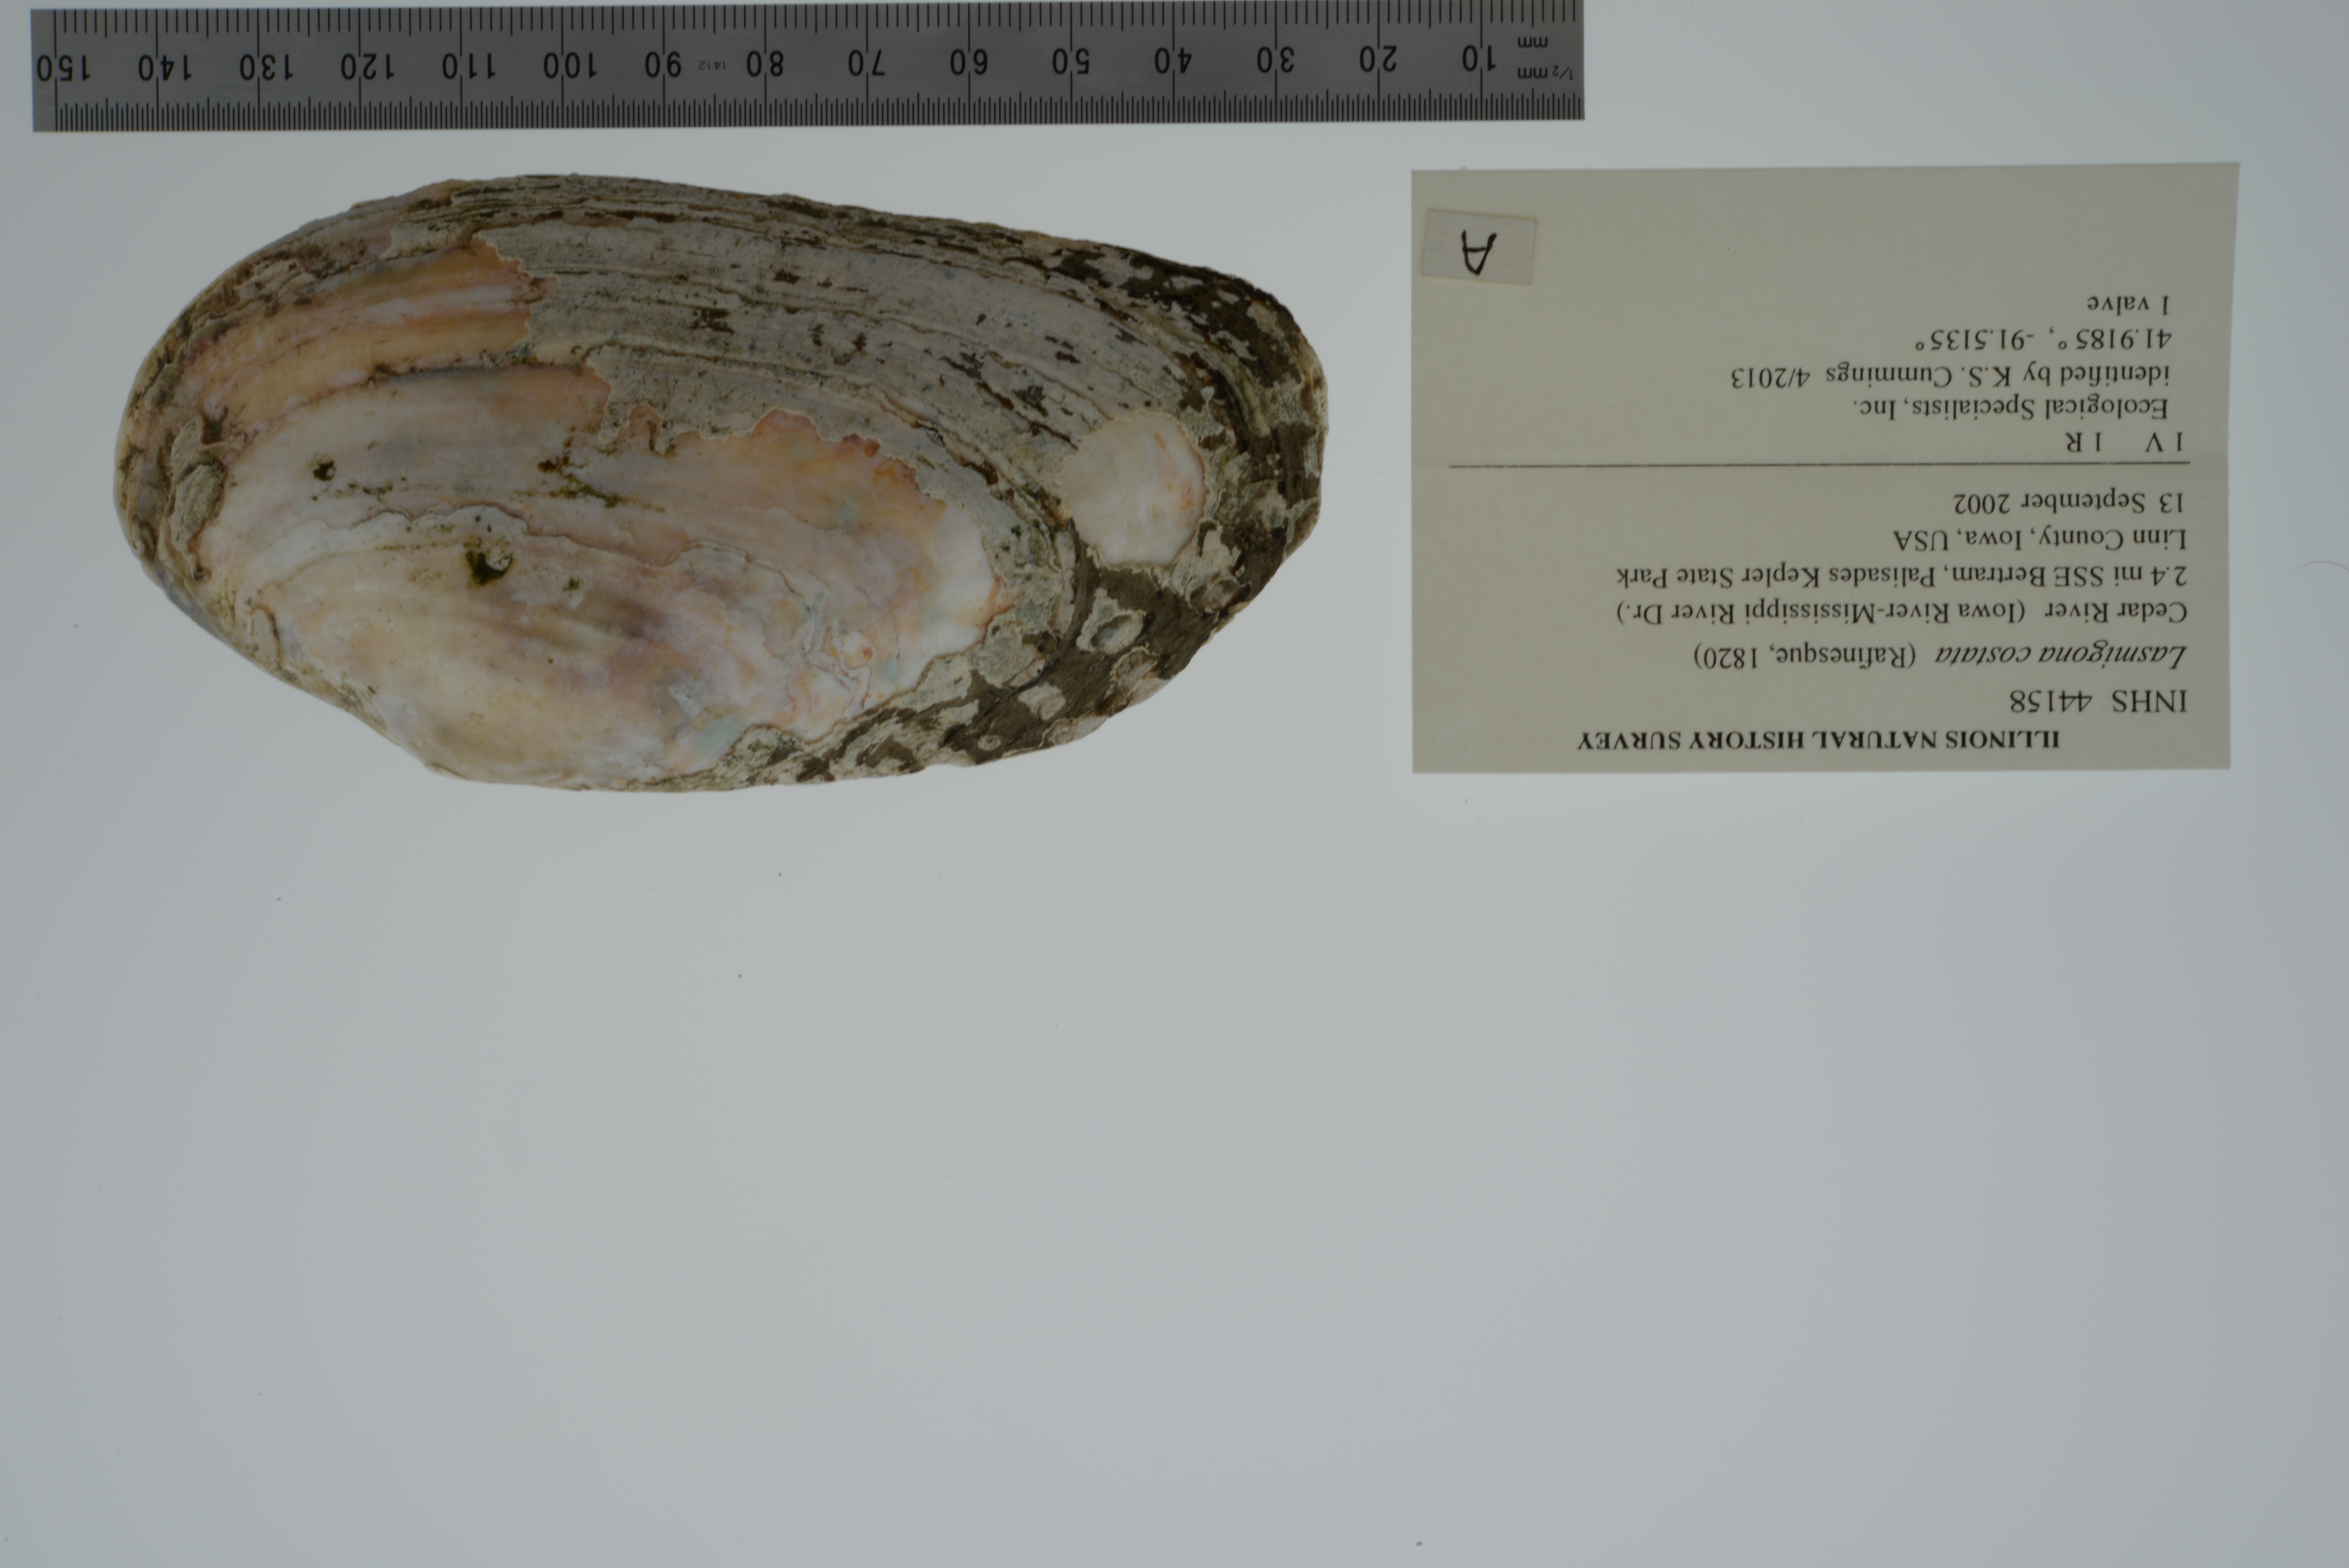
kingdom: Animalia
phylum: Mollusca
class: Bivalvia
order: Unionida
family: Unionidae
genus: Lasmigona
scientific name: Lasmigona costata
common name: Flutedshell
